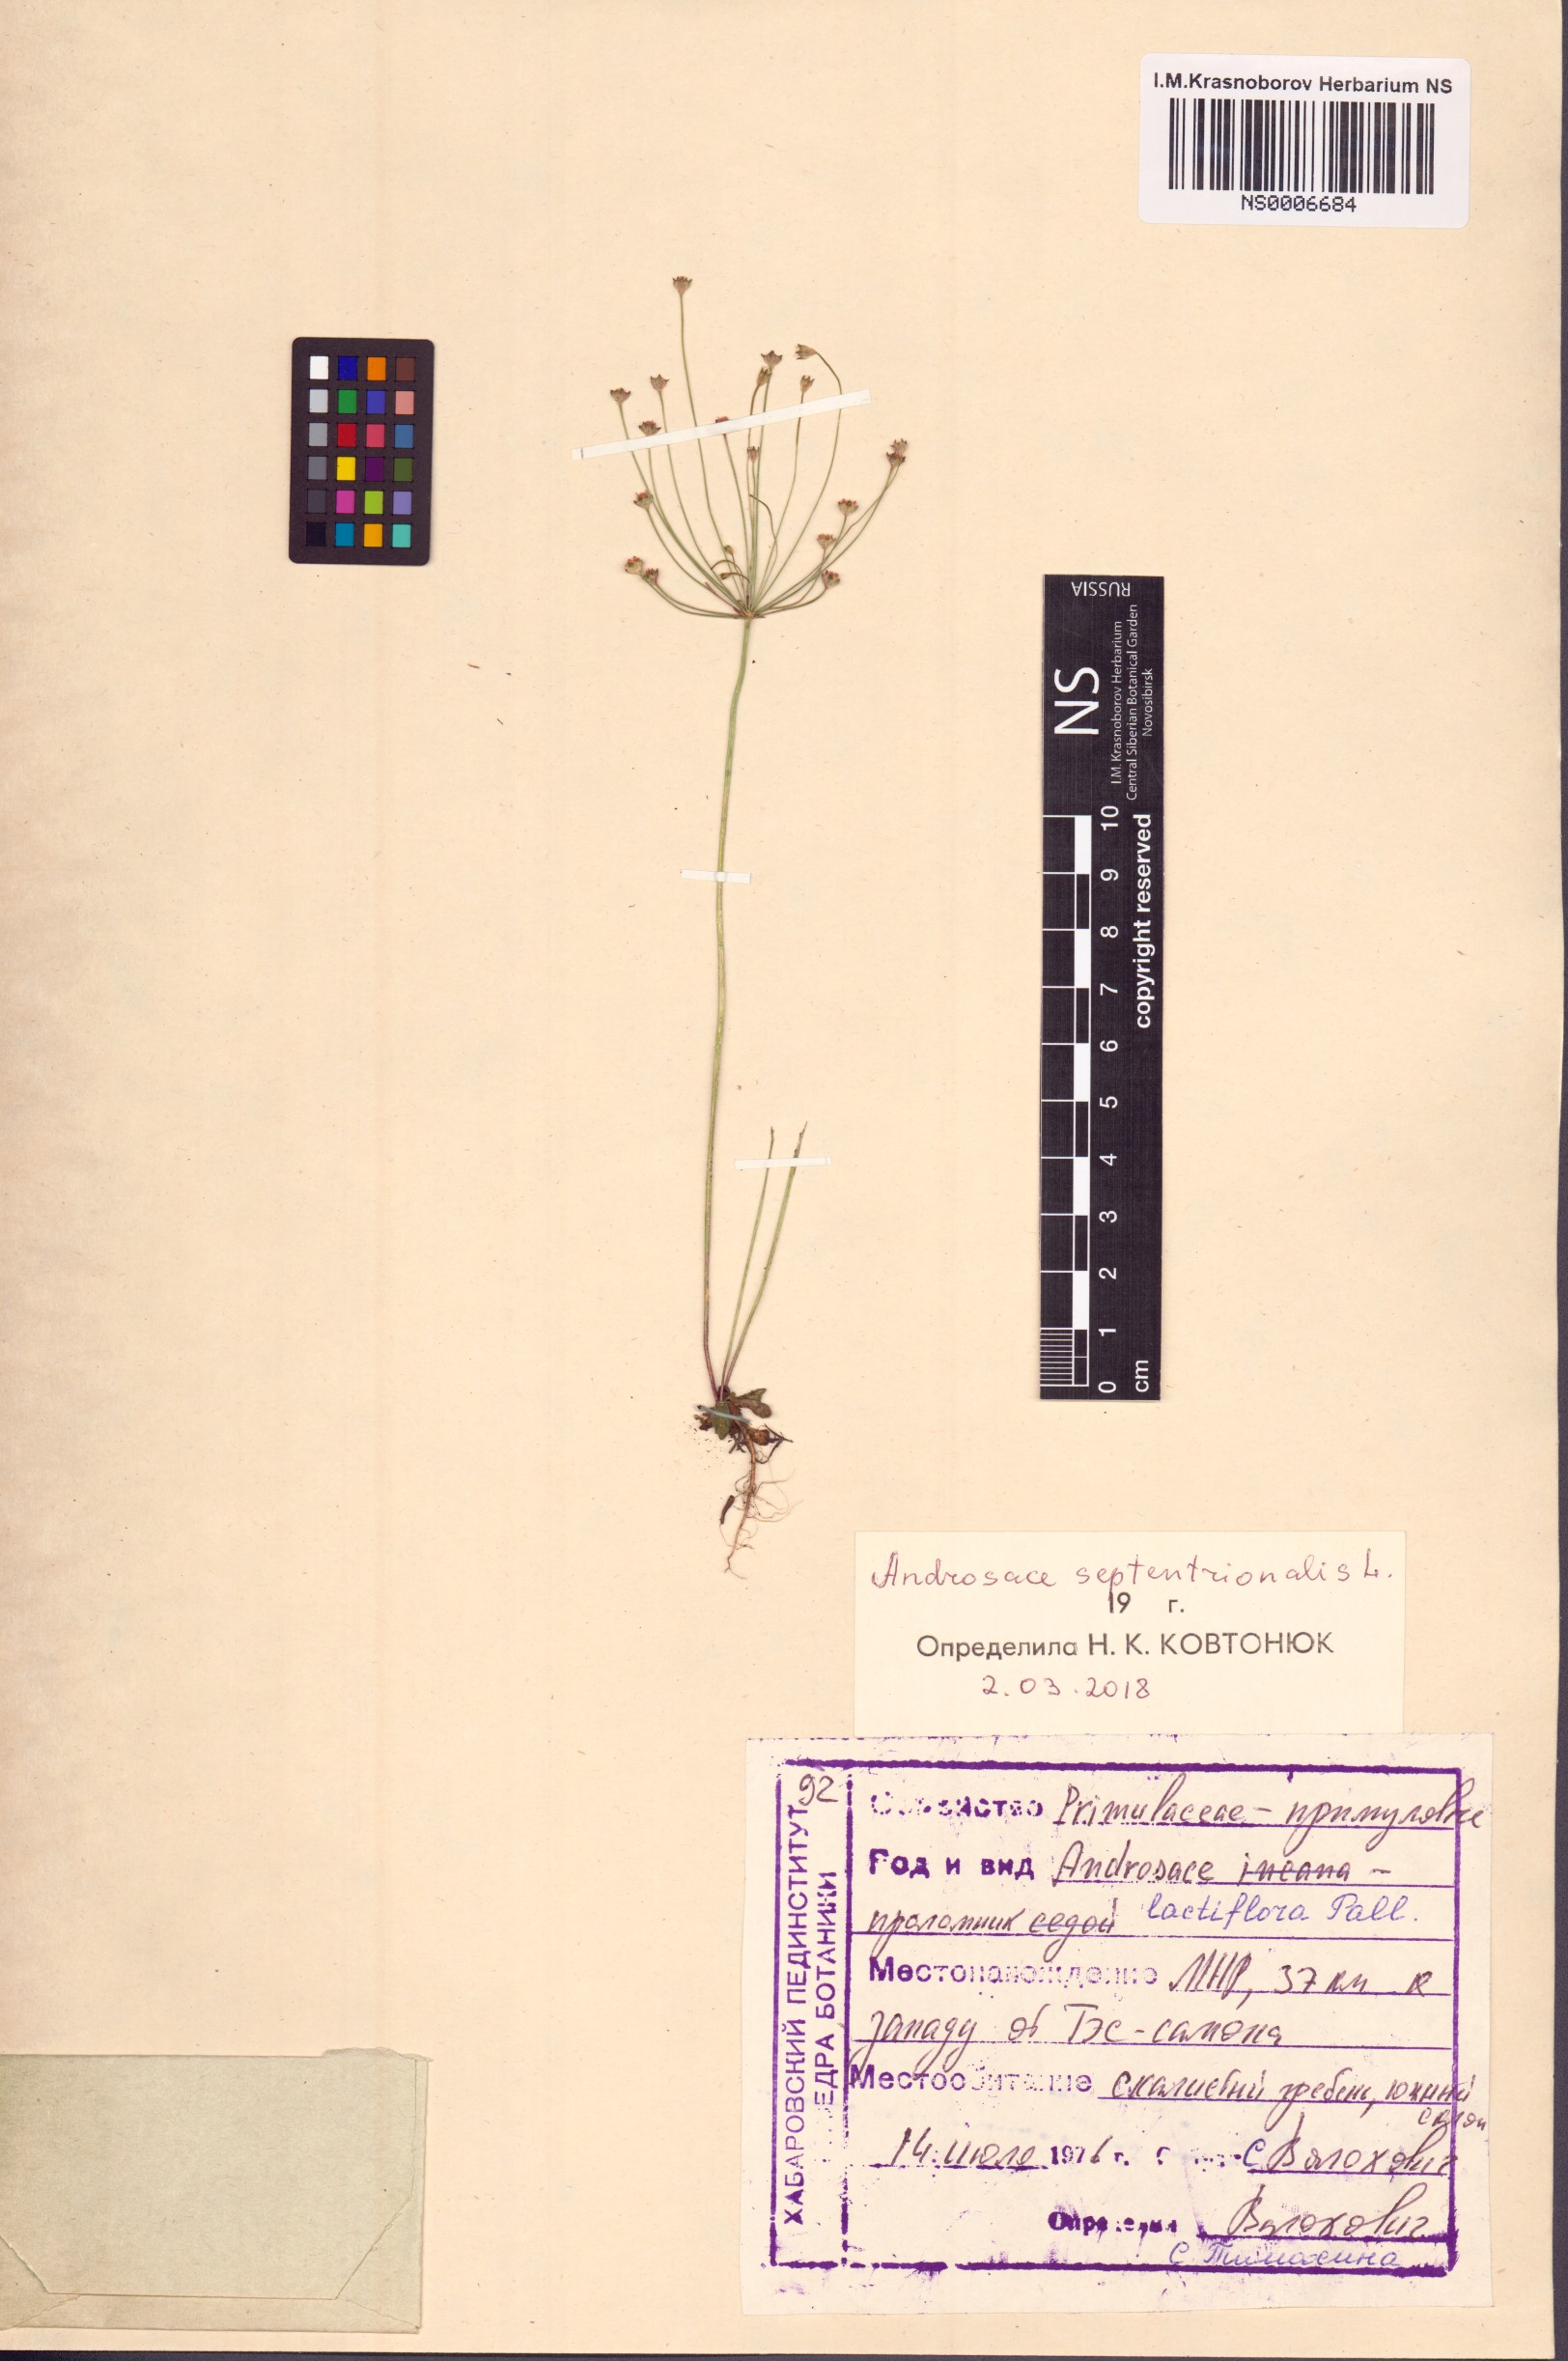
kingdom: Plantae
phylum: Tracheophyta
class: Magnoliopsida
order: Ericales
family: Primulaceae
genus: Androsace
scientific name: Androsace septentrionalis
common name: Hairy northern fairy-candelabra
